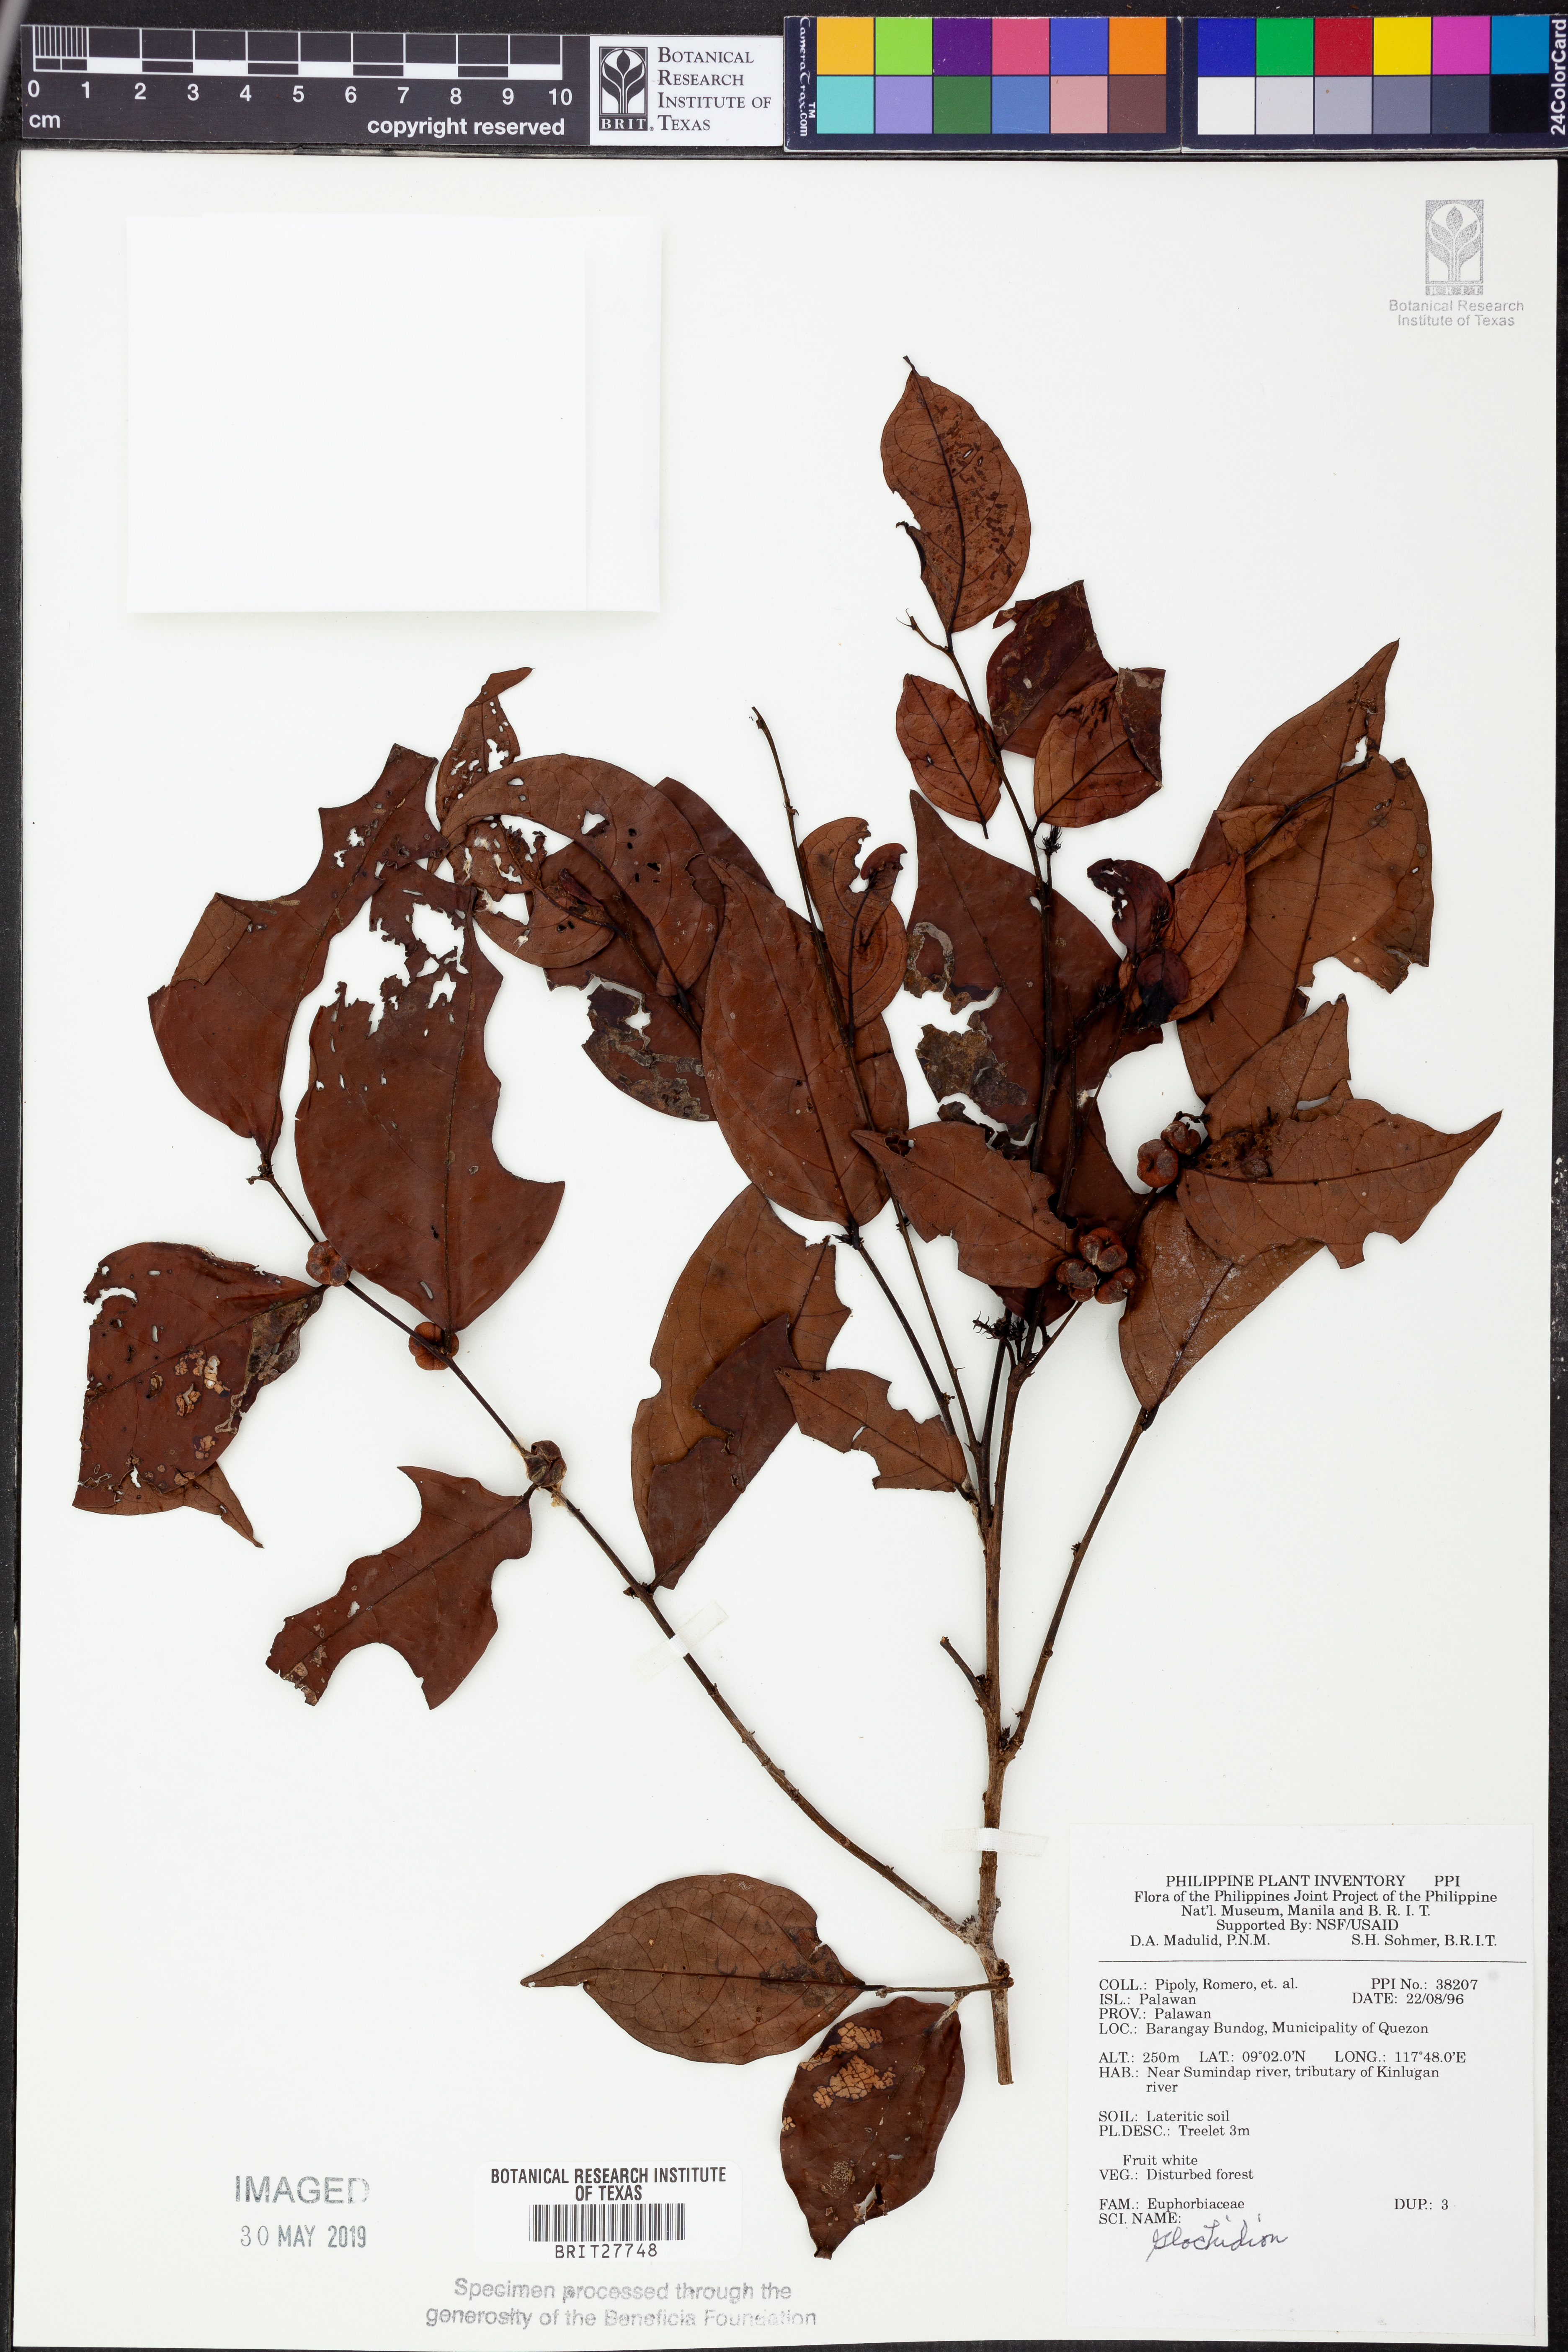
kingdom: Plantae
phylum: Tracheophyta
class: Magnoliopsida
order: Malpighiales
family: Phyllanthaceae
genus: Glochidion
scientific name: Glochidion
